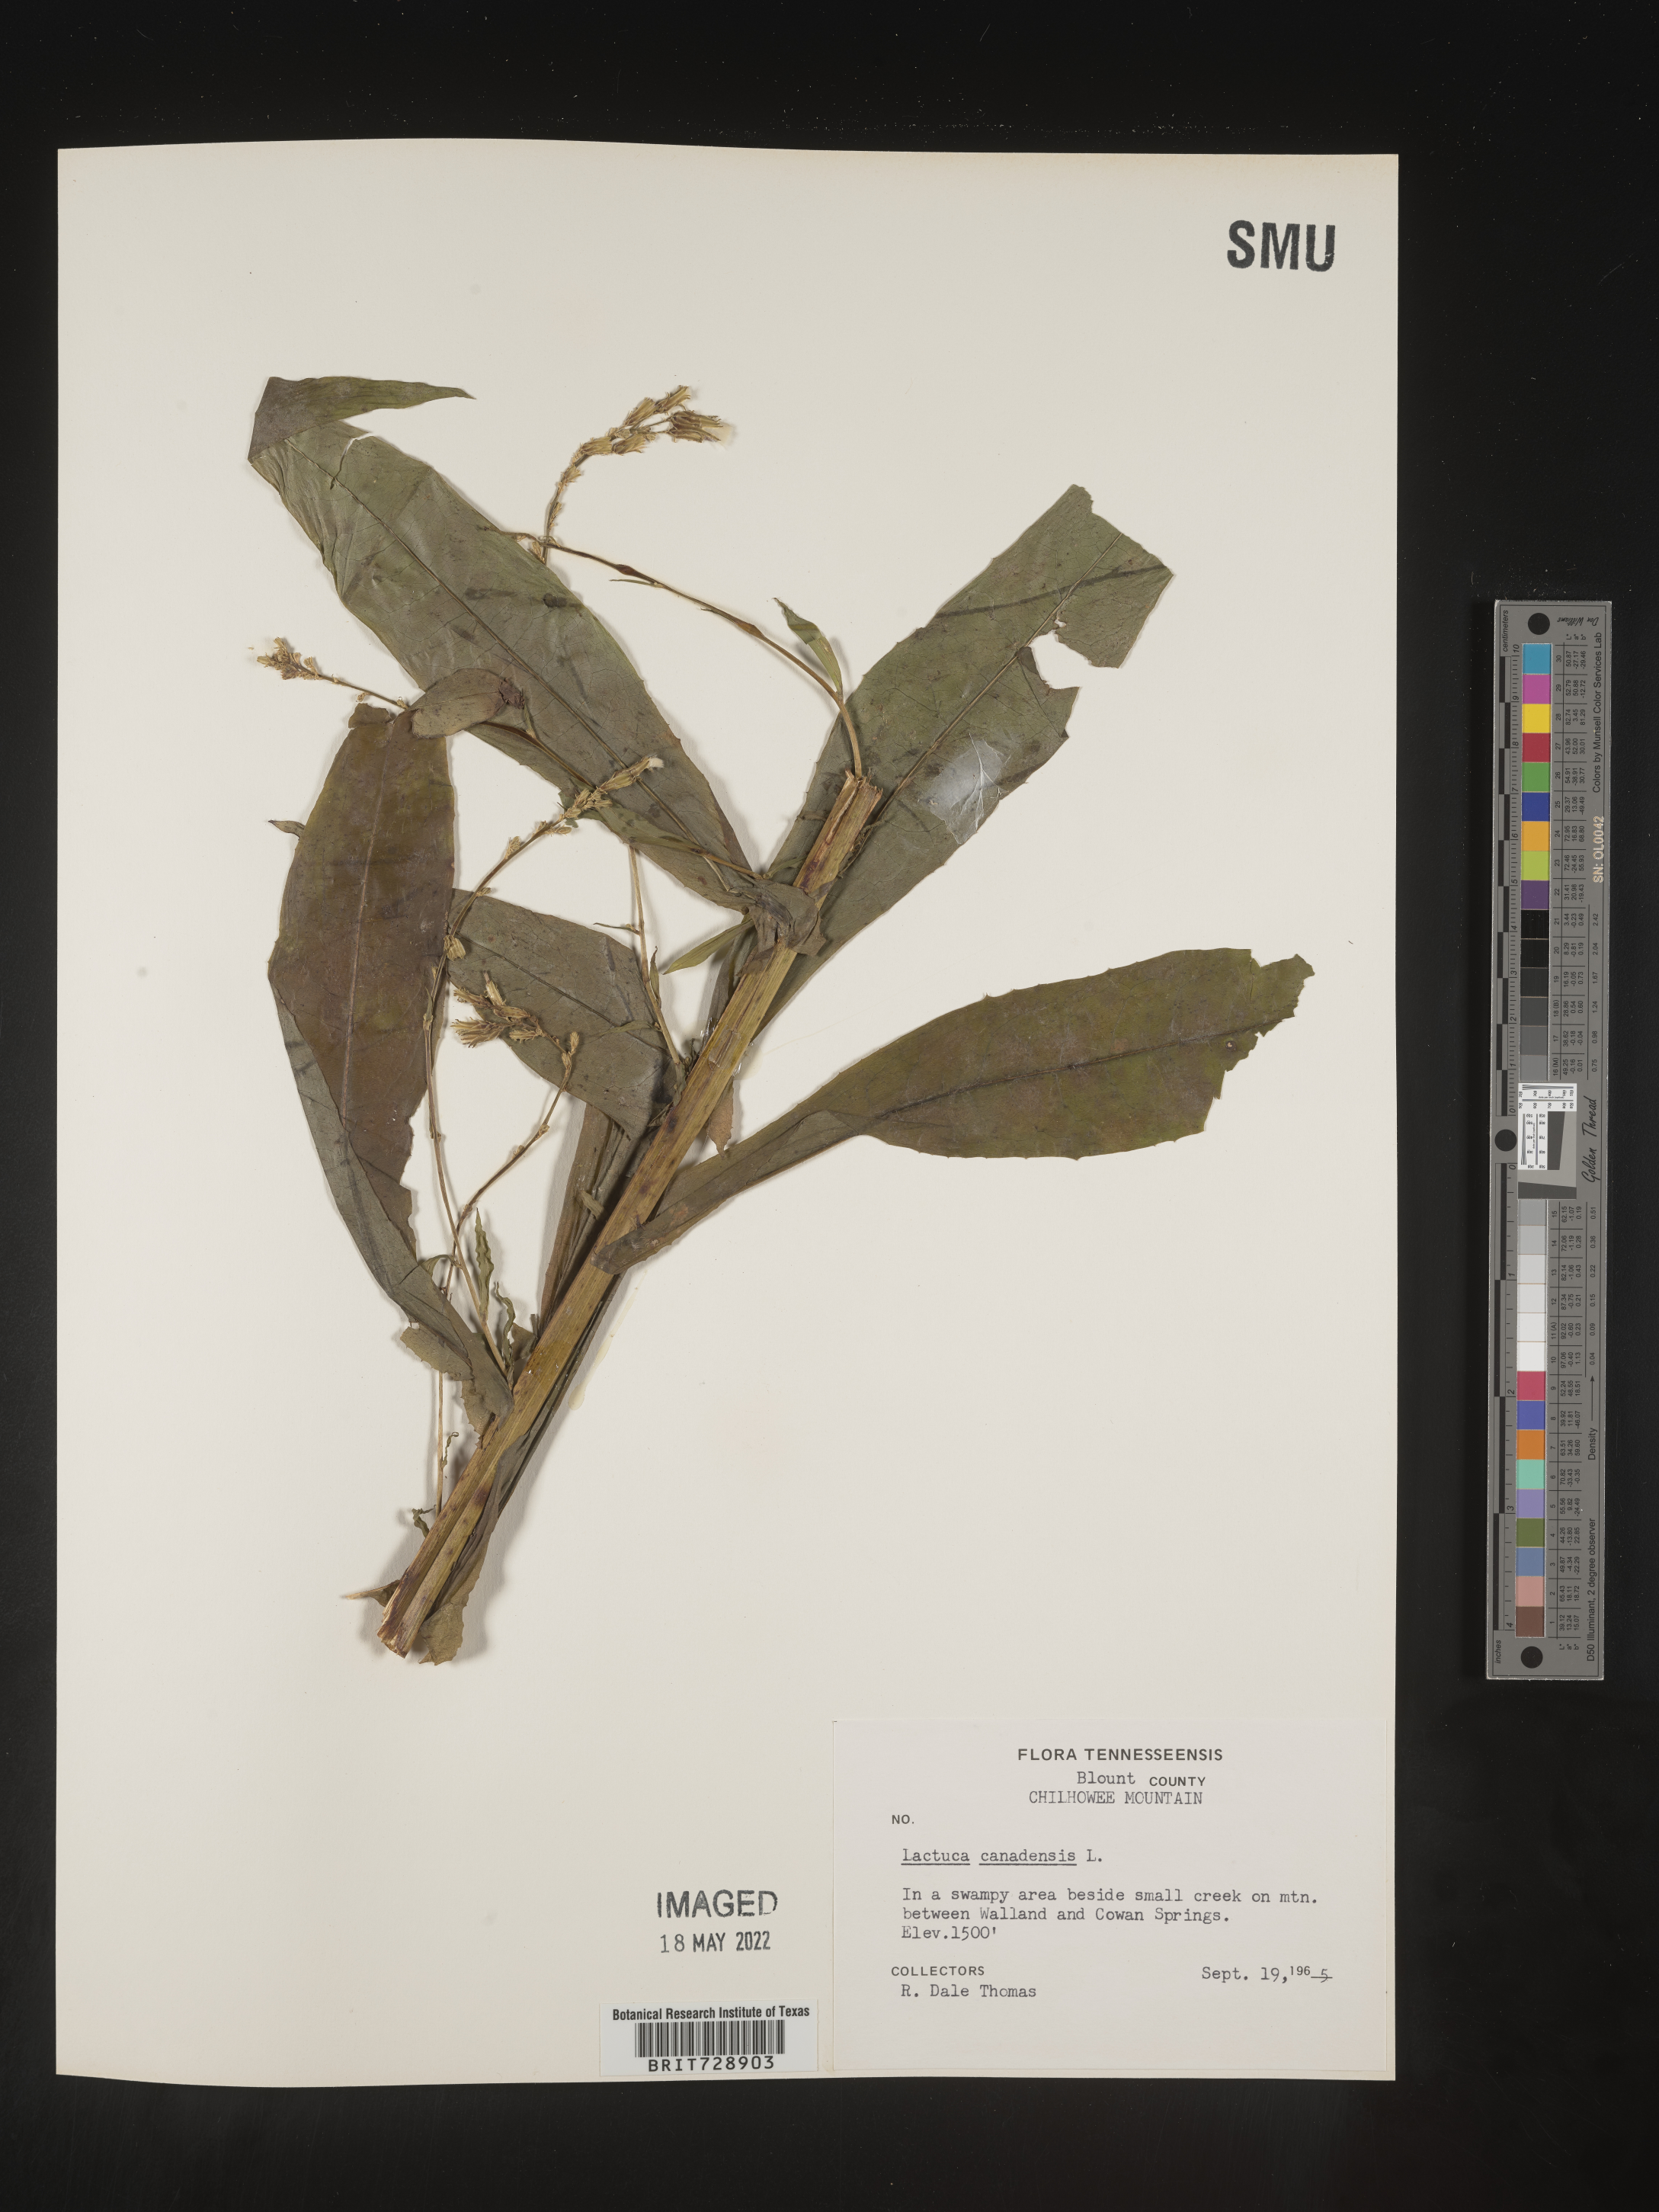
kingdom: Plantae
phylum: Tracheophyta
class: Magnoliopsida
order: Asterales
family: Asteraceae
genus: Lactuca
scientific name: Lactuca canadensis
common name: Canada lettuce
